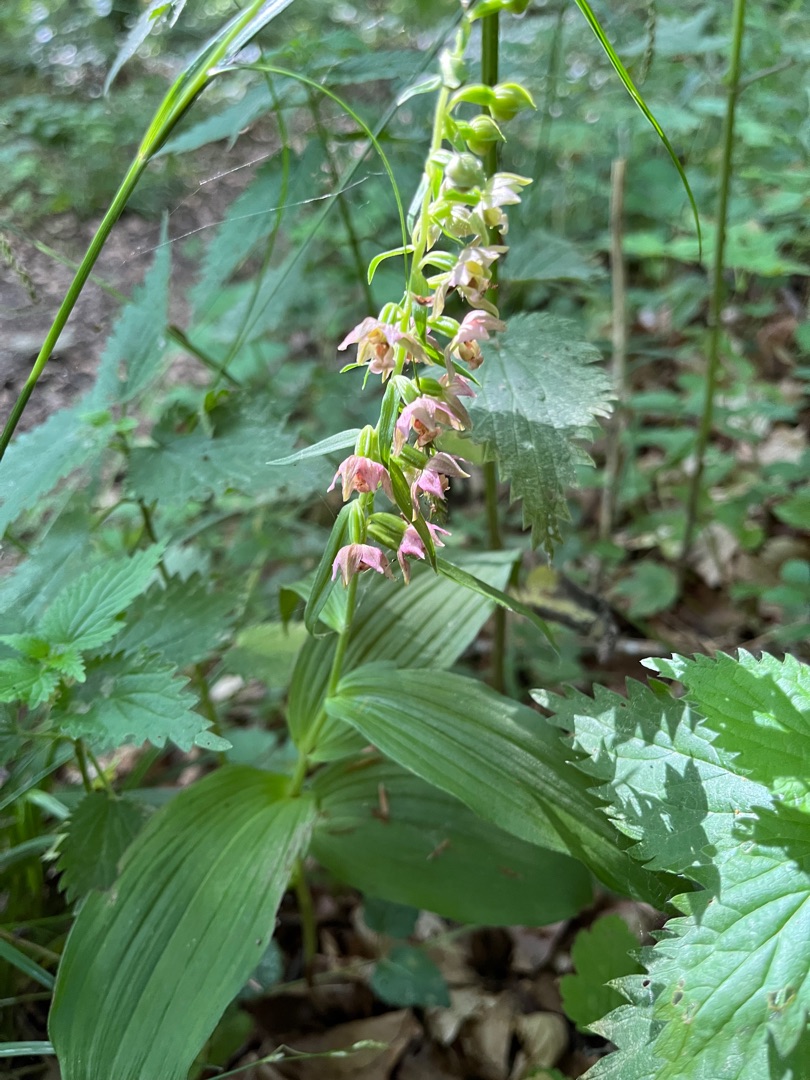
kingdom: Plantae
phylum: Tracheophyta
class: Liliopsida
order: Asparagales
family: Orchidaceae
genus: Epipactis
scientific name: Epipactis helleborine
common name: Skov-hullæbe
